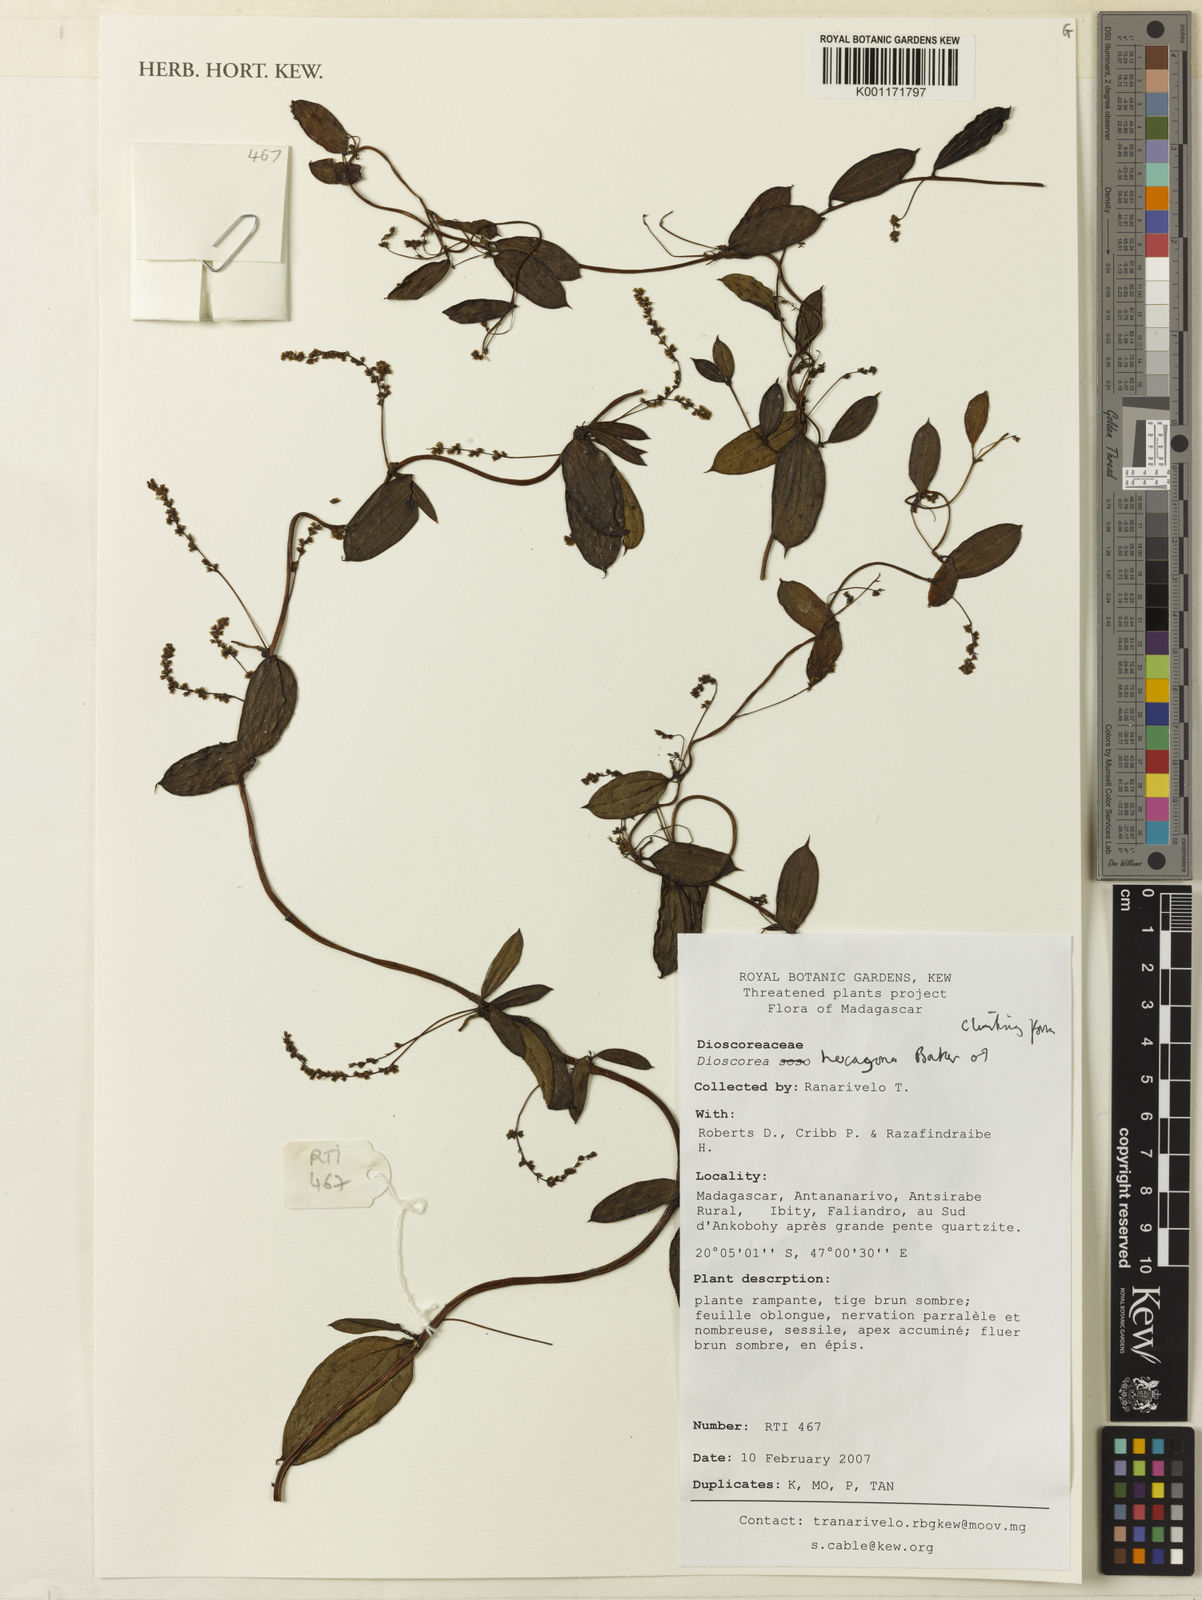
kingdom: Plantae
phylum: Tracheophyta
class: Liliopsida
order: Dioscoreales
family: Dioscoreaceae
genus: Dioscorea
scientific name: Dioscorea hexagona
